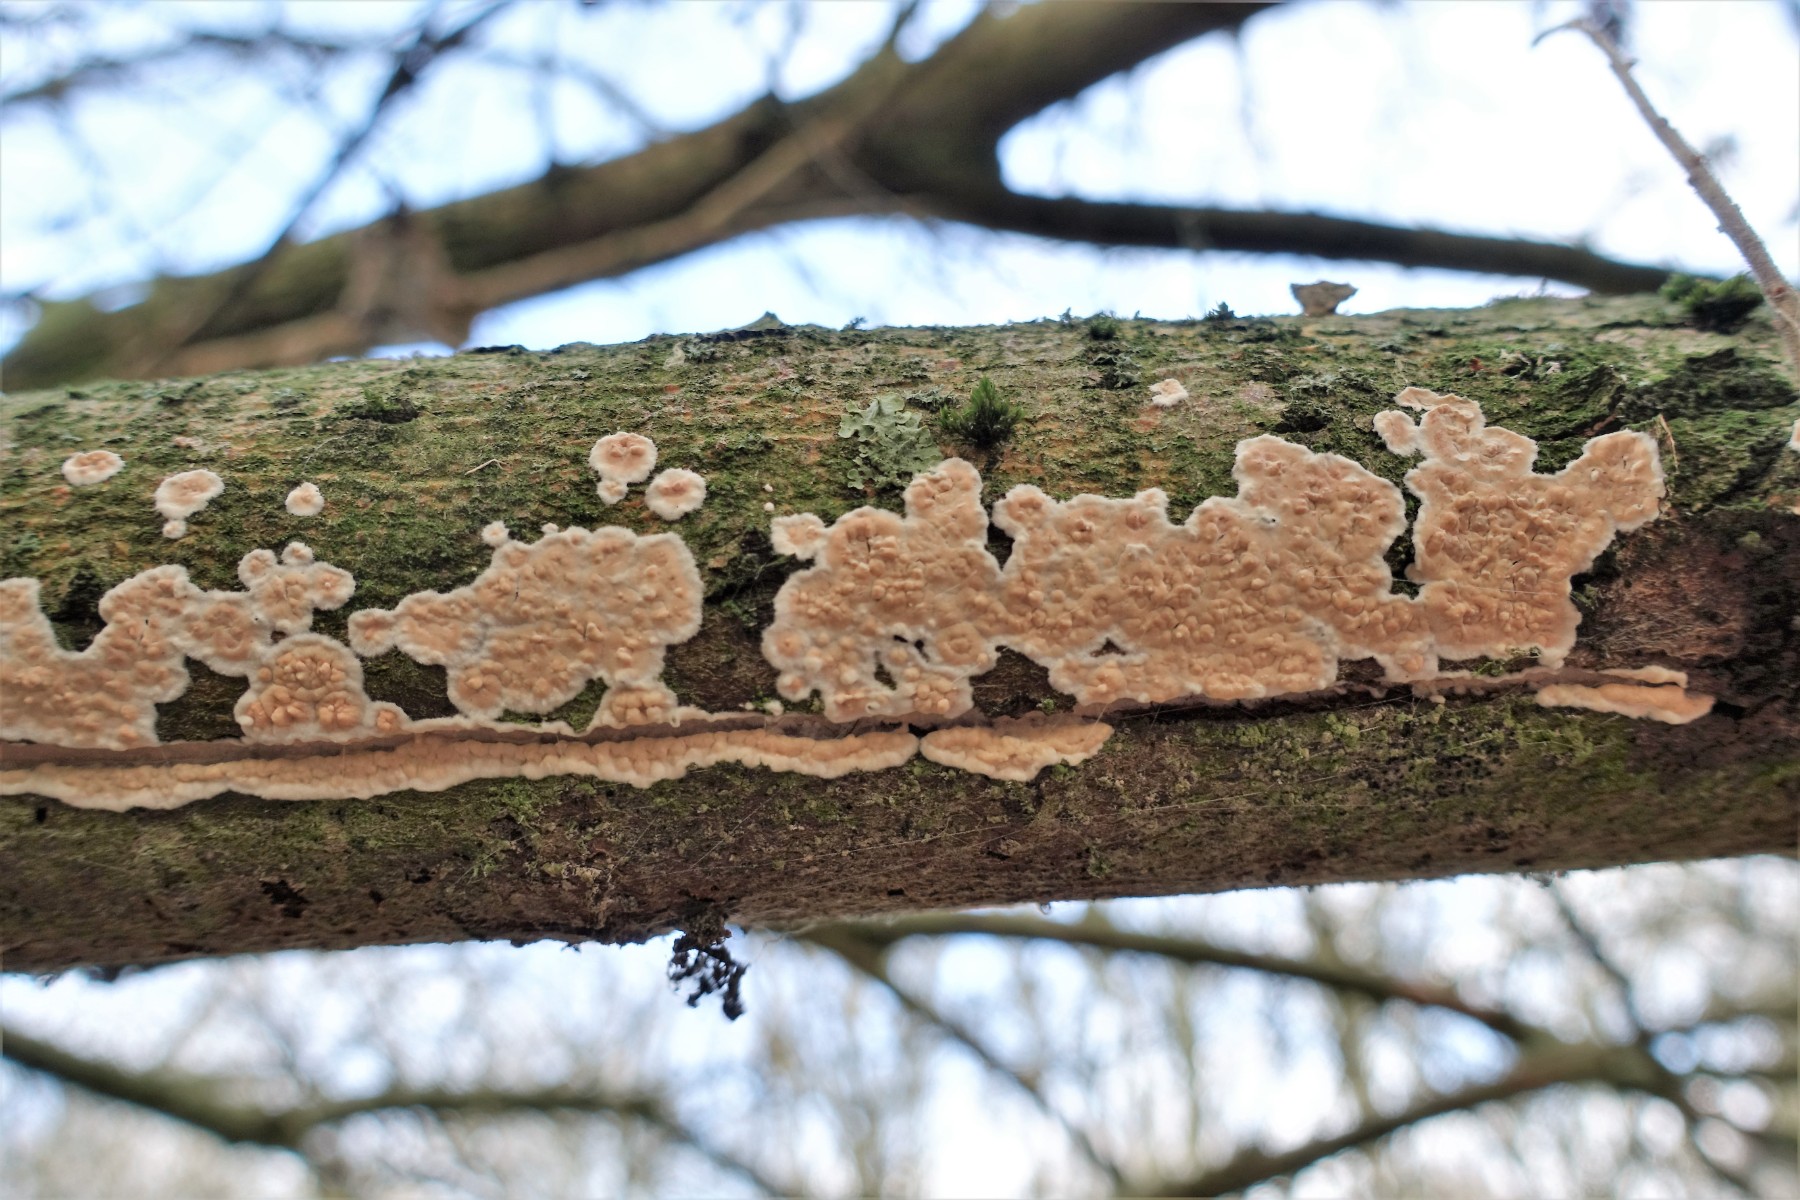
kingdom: Fungi
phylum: Basidiomycota
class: Agaricomycetes
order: Agaricales
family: Physalacriaceae
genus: Cylindrobasidium
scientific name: Cylindrobasidium evolvens
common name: sprækkehinde
